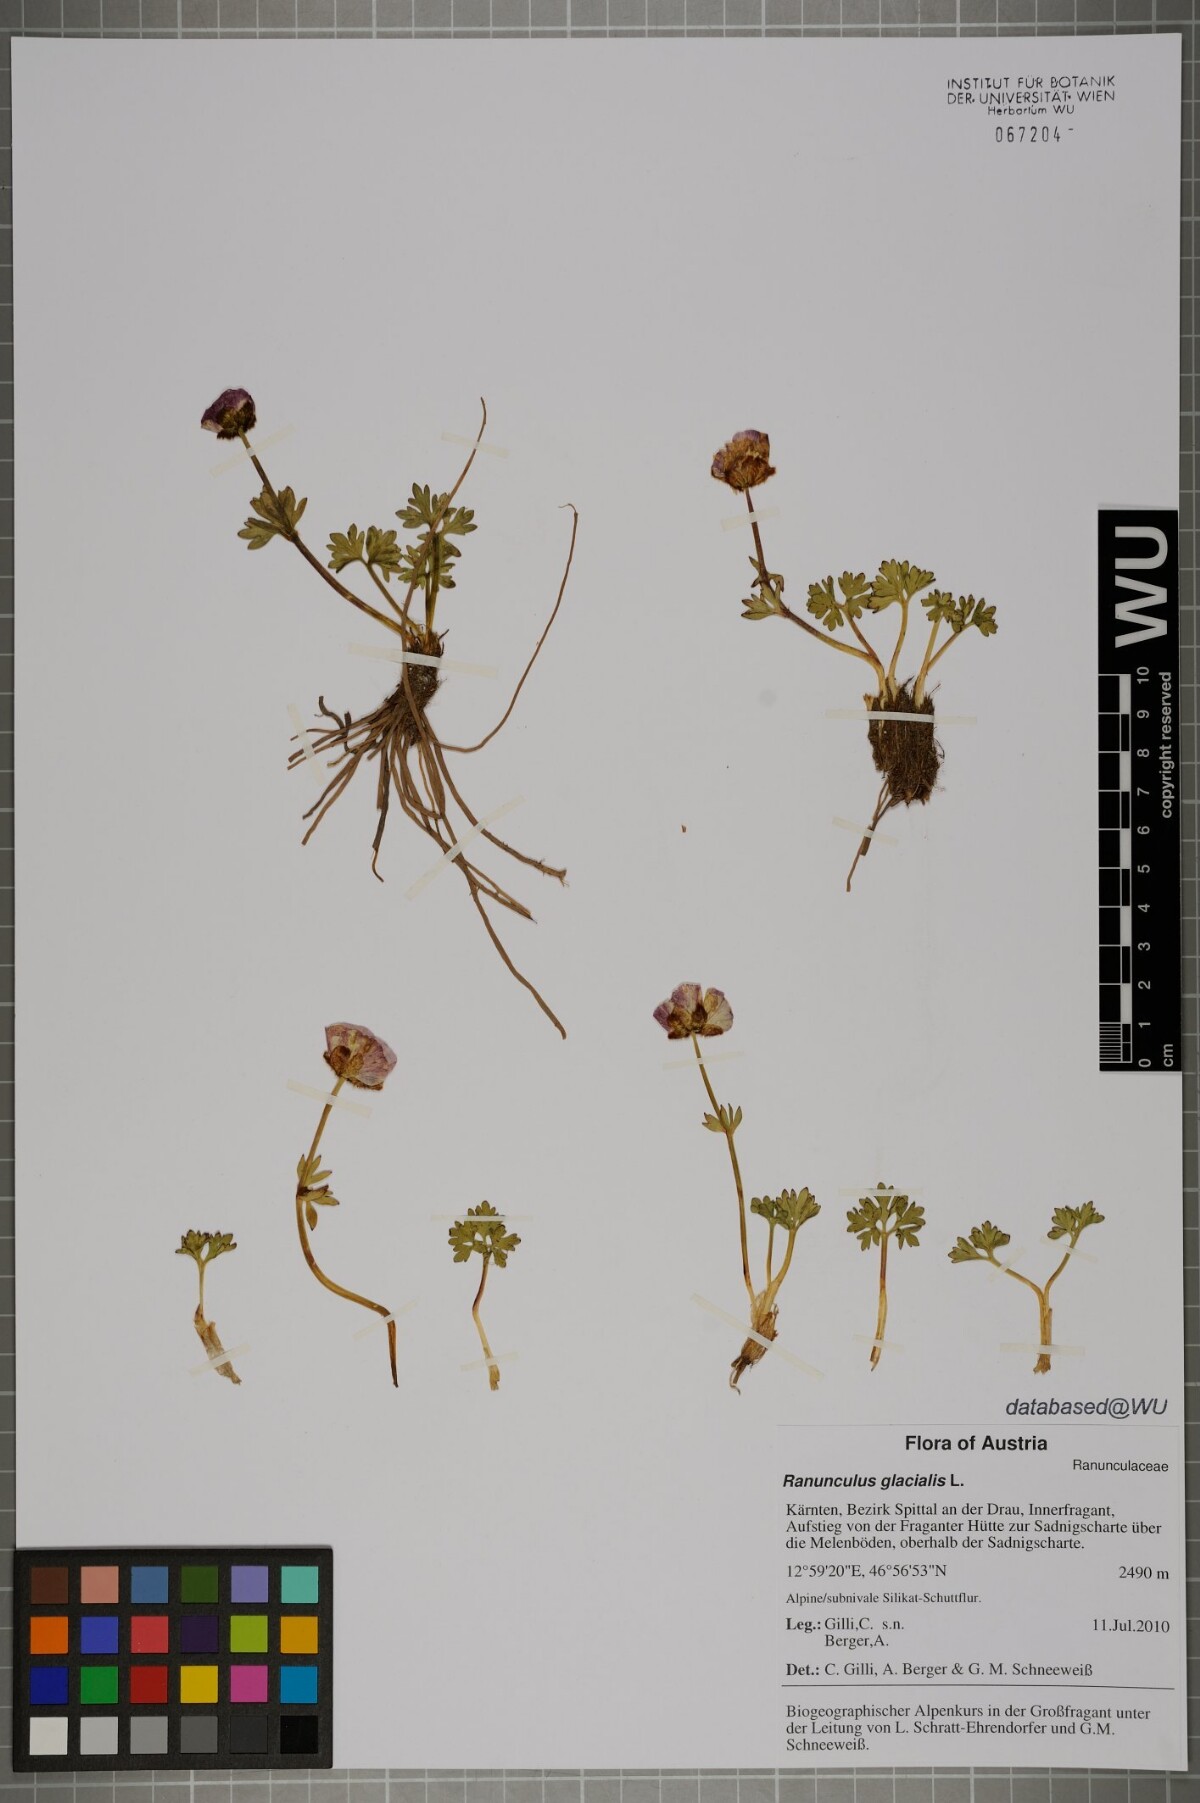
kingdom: Plantae
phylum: Tracheophyta
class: Magnoliopsida
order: Ranunculales
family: Ranunculaceae
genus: Ranunculus
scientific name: Ranunculus glacialis
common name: Glacier buttercup
